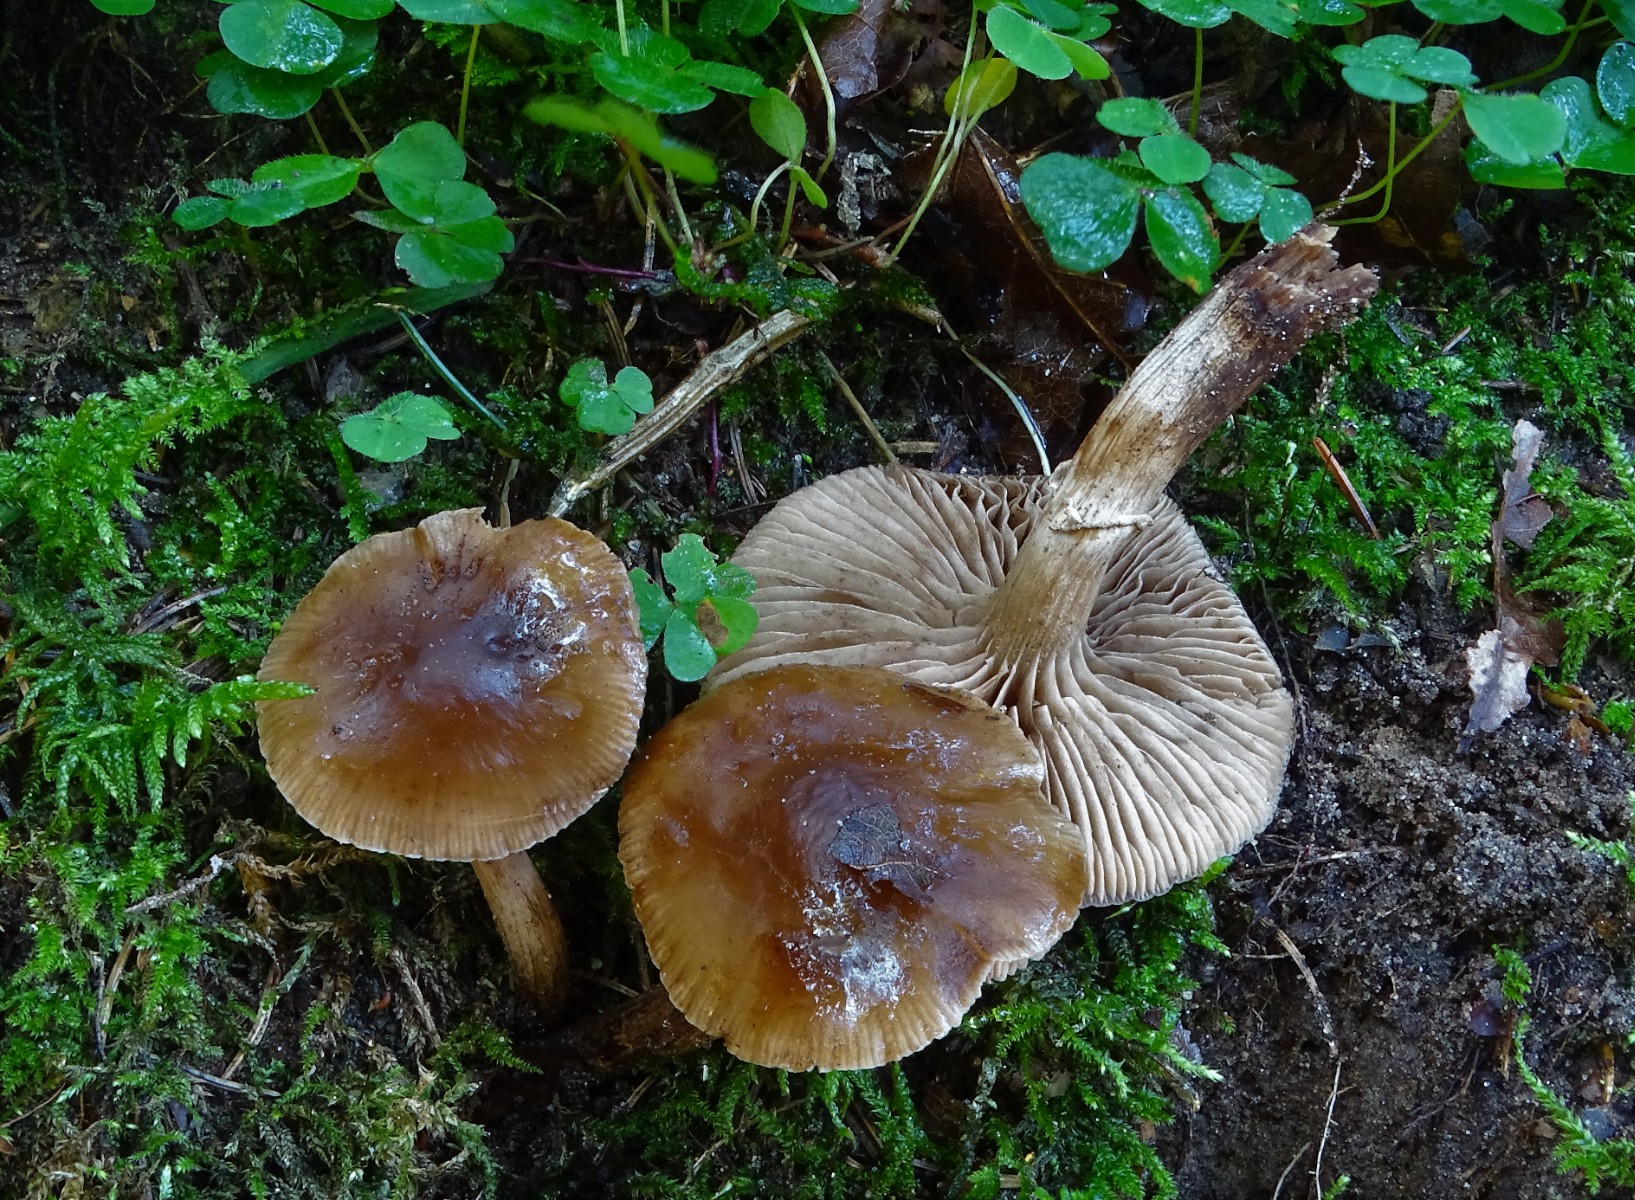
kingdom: Fungi
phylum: Basidiomycota
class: Agaricomycetes
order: Agaricales
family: Tubariaceae
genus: Cyclocybe
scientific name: Cyclocybe erebia
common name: mørk agerhat
